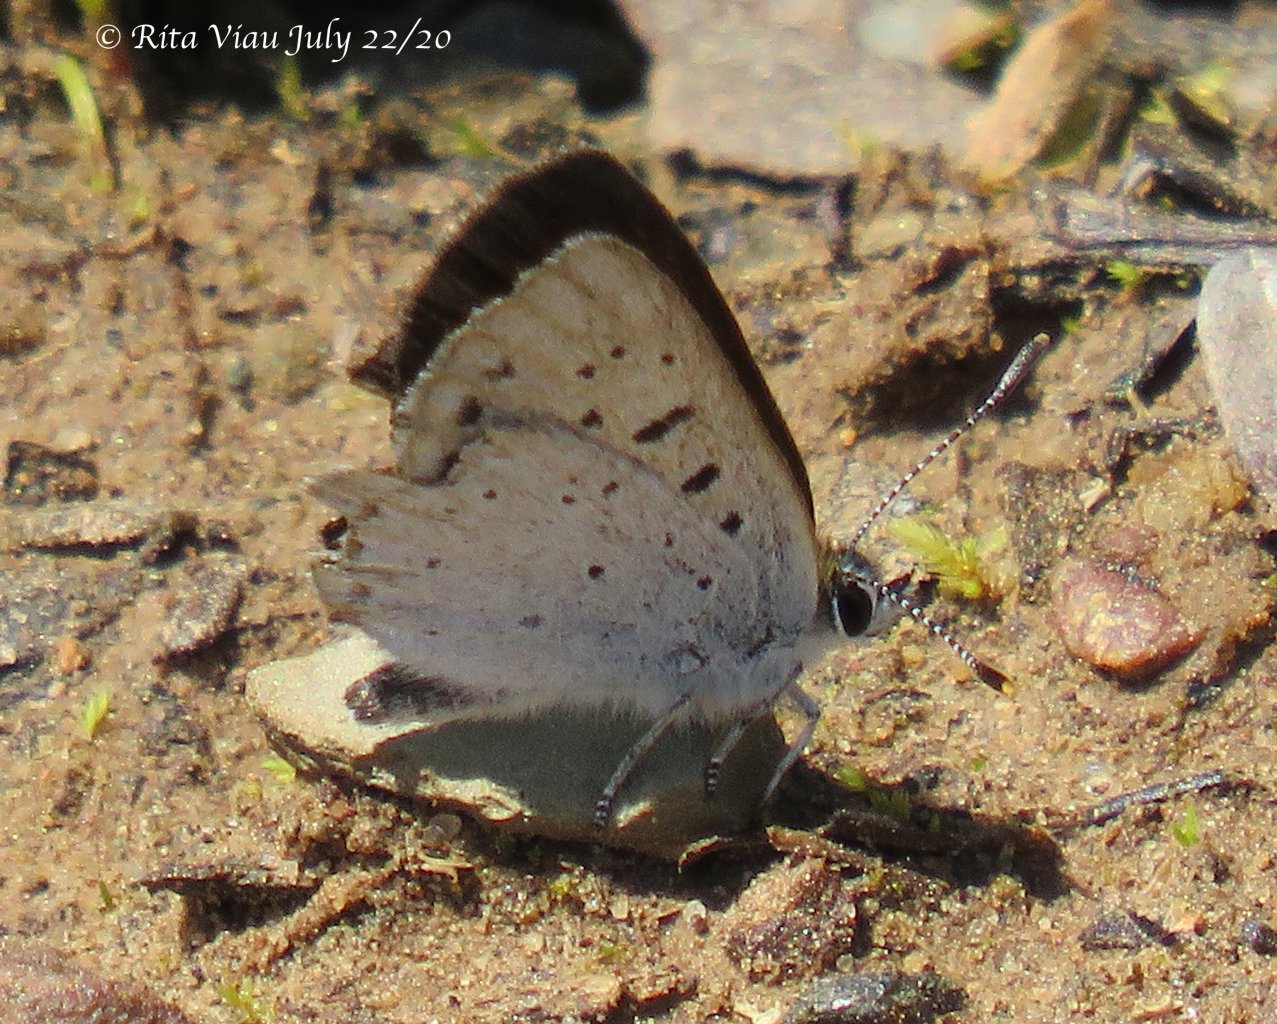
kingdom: Animalia
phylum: Arthropoda
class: Insecta
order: Lepidoptera
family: Sesiidae
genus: Sesia
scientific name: Sesia Lycaena epixanthe
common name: Bog Copper
